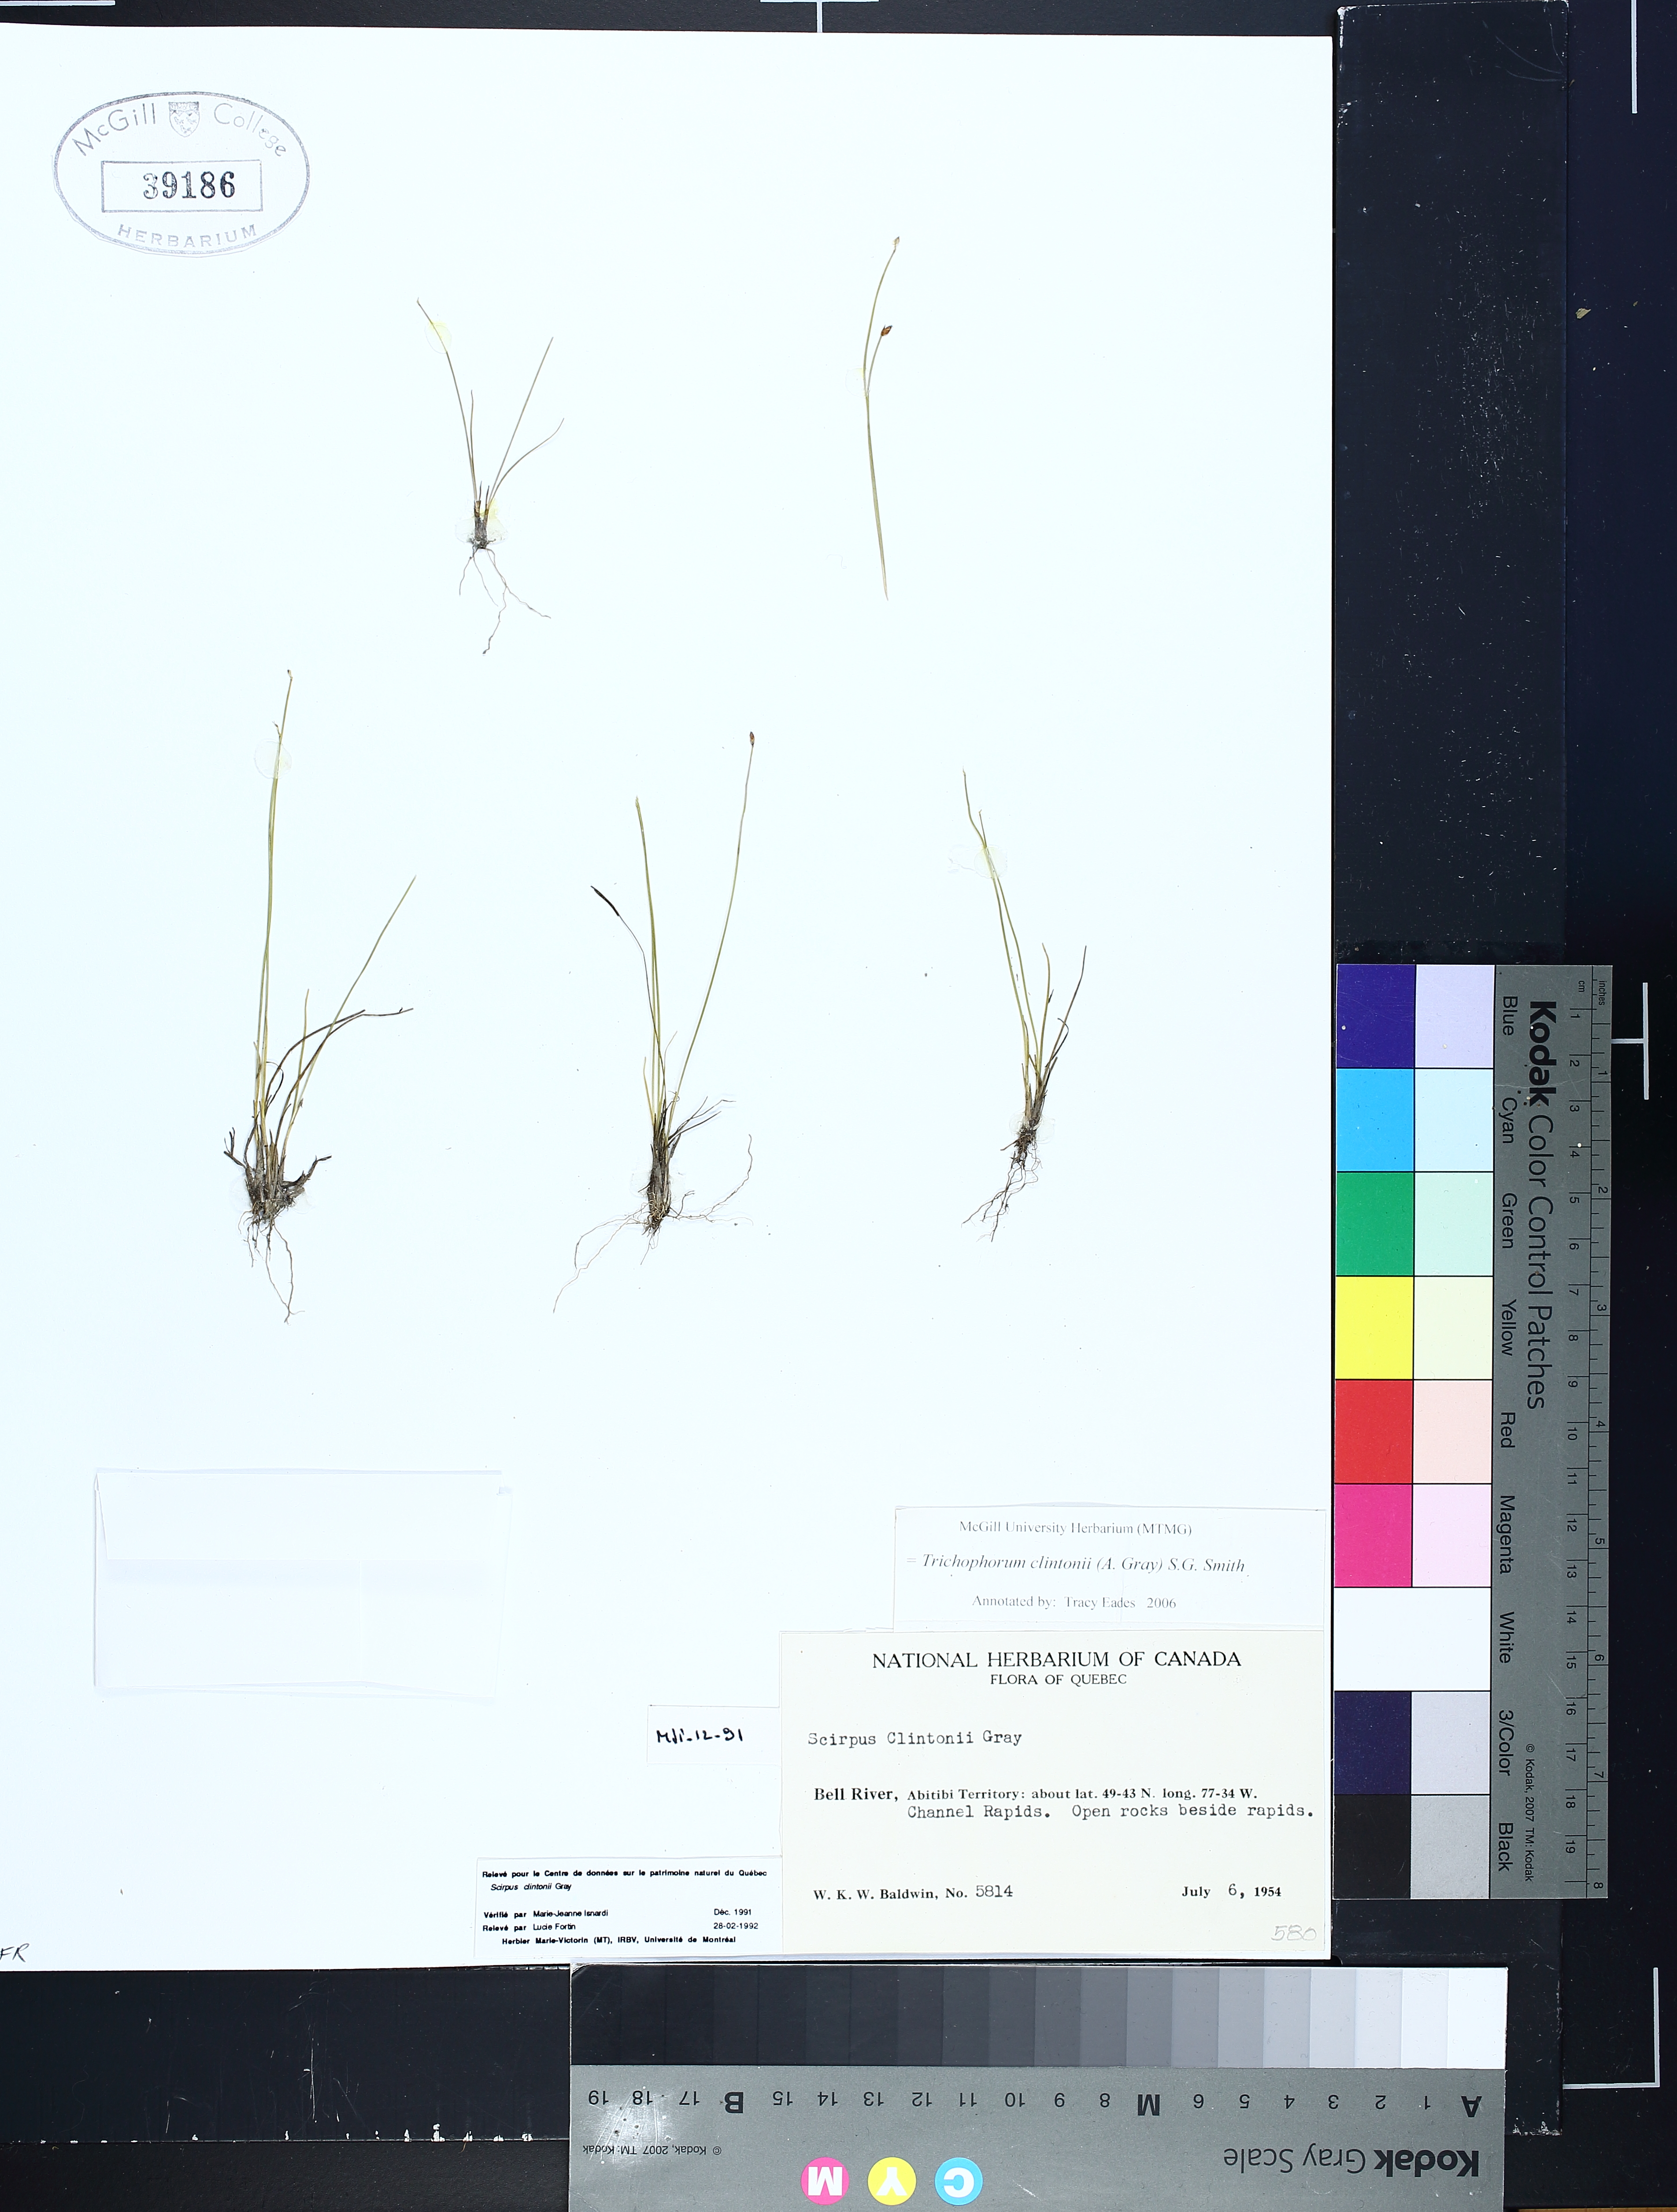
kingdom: Plantae
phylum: Tracheophyta
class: Liliopsida
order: Poales
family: Cyperaceae
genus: Trichophorum
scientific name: Trichophorum clintonii
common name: Clinton's bulrush
